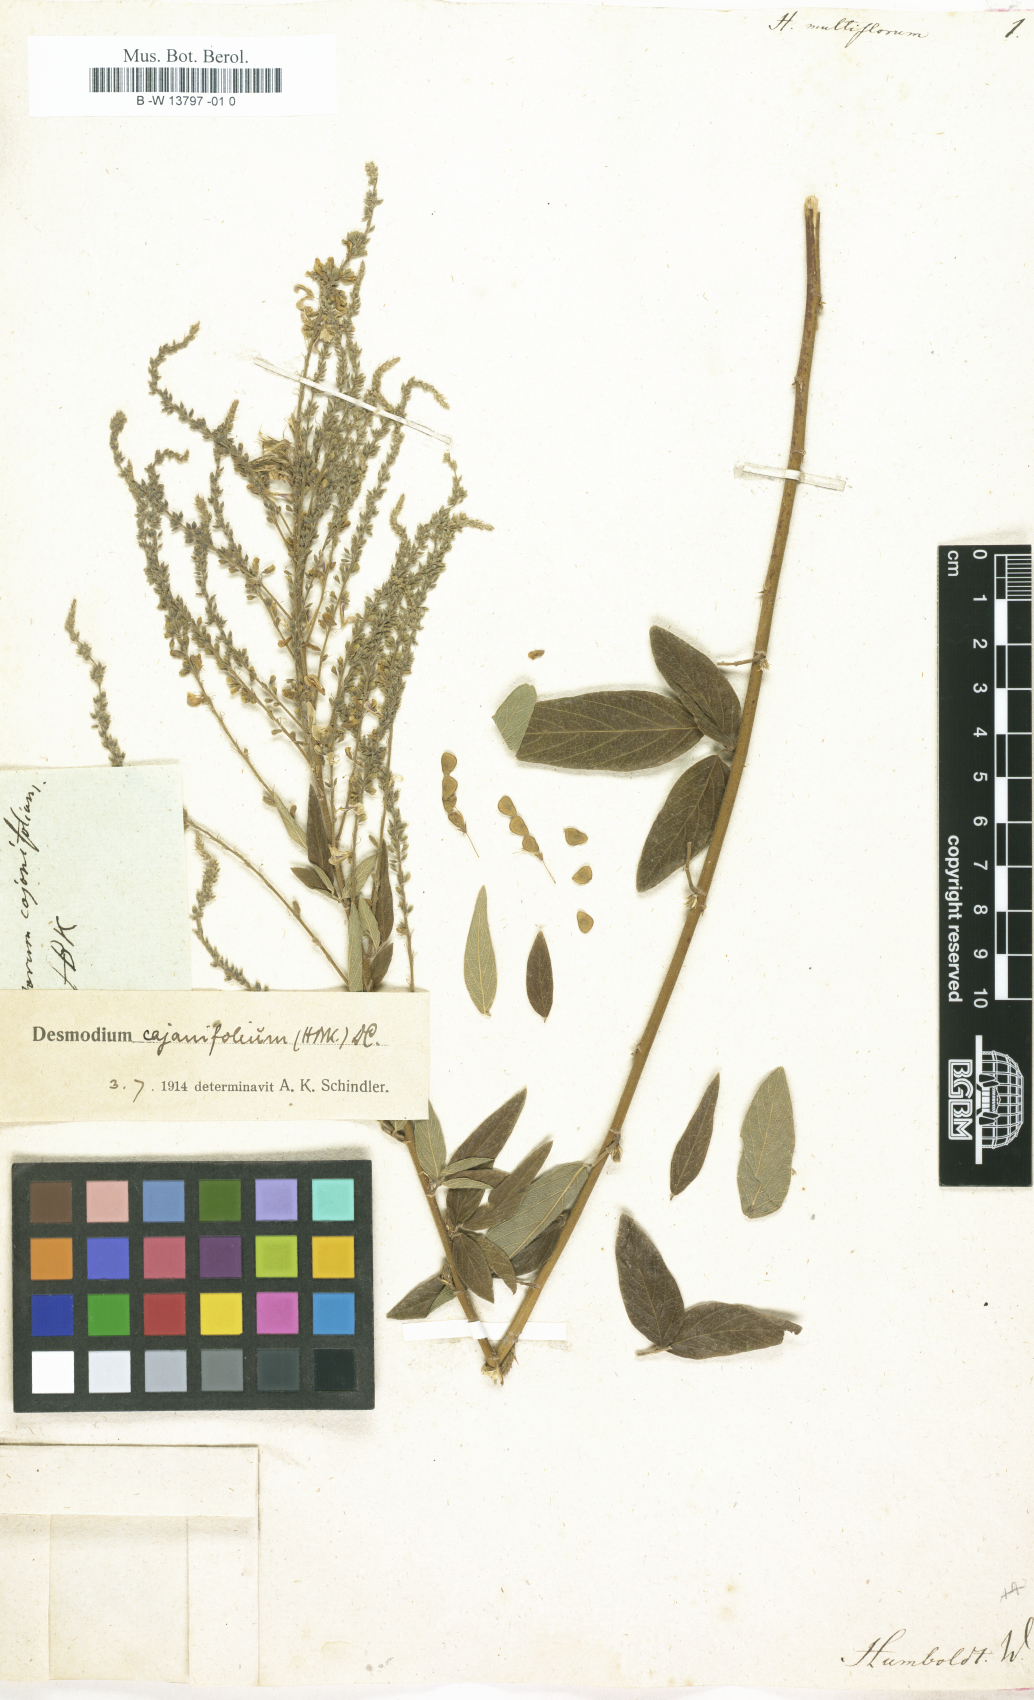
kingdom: Plantae
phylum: Tracheophyta
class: Magnoliopsida
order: Fabales
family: Fabaceae
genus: Desmodium
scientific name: Desmodium cajanifolium
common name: Tropical ticktrefoil
